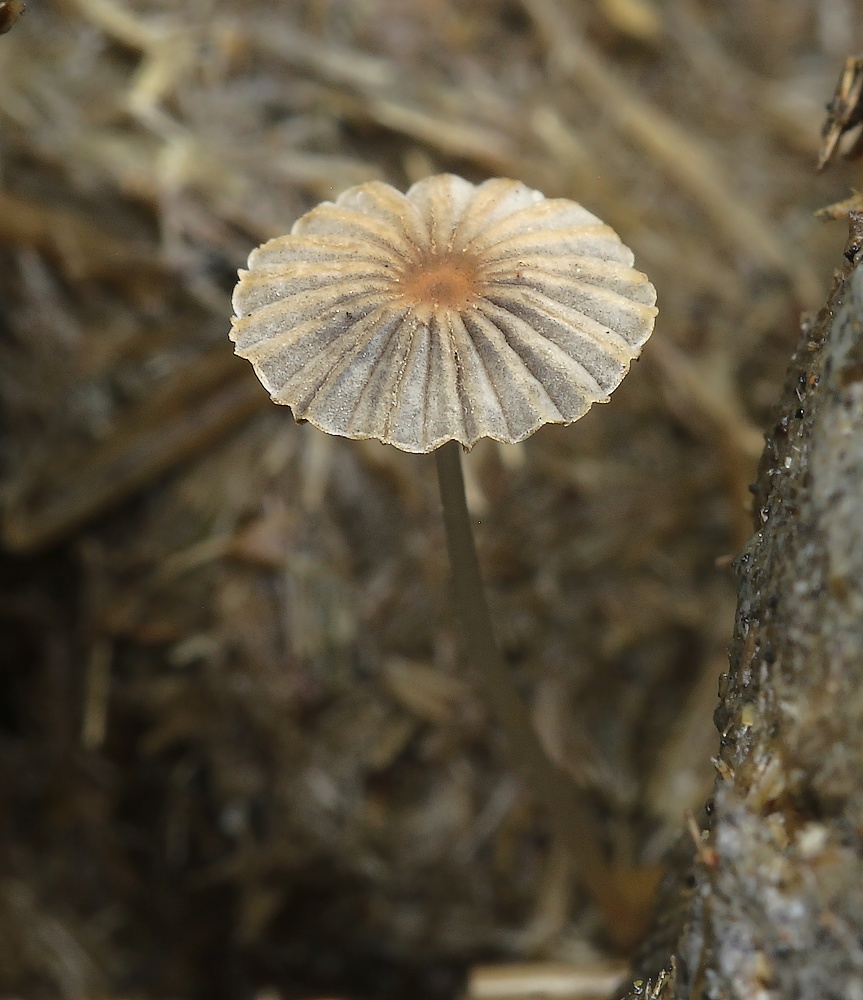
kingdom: Fungi
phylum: Basidiomycota
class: Agaricomycetes
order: Agaricales
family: Psathyrellaceae
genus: Parasola
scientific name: Parasola misera
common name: lillebitte hjulhat
